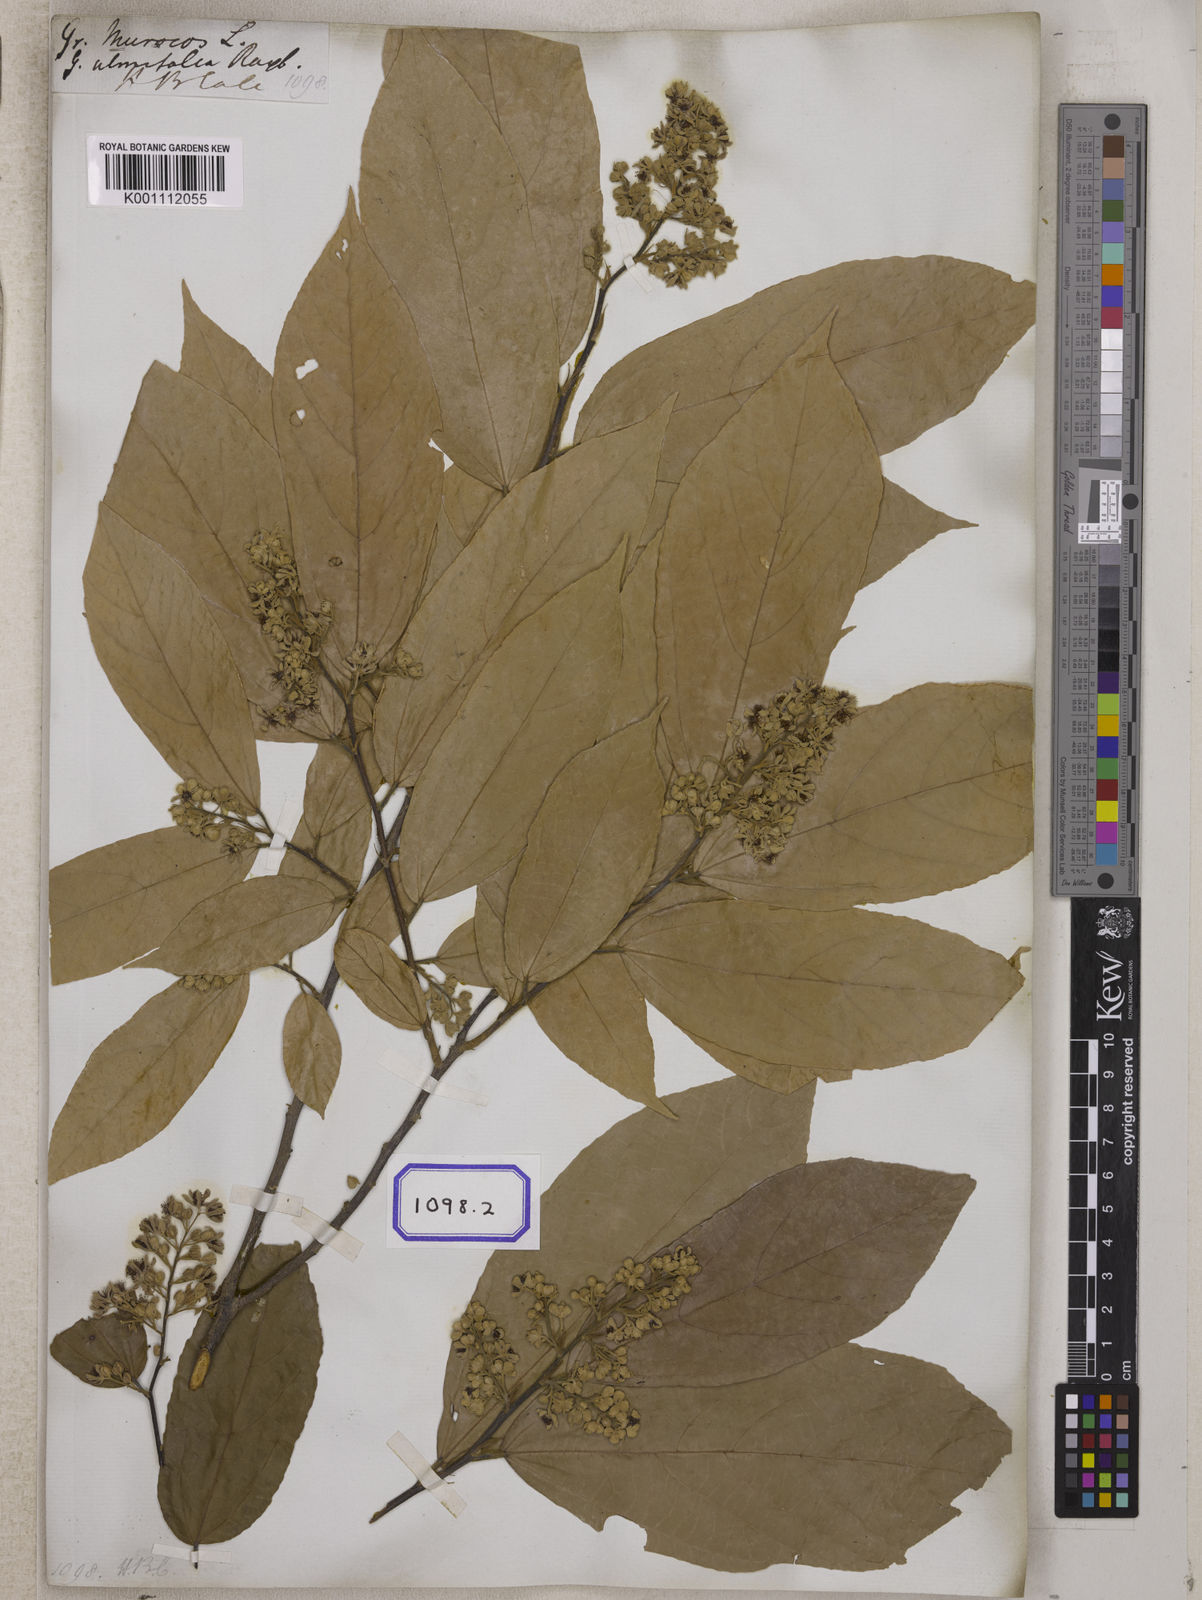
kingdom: Plantae
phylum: Tracheophyta
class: Magnoliopsida
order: Malvales
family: Malvaceae
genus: Microcos
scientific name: Microcos paniculata
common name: Microcos
